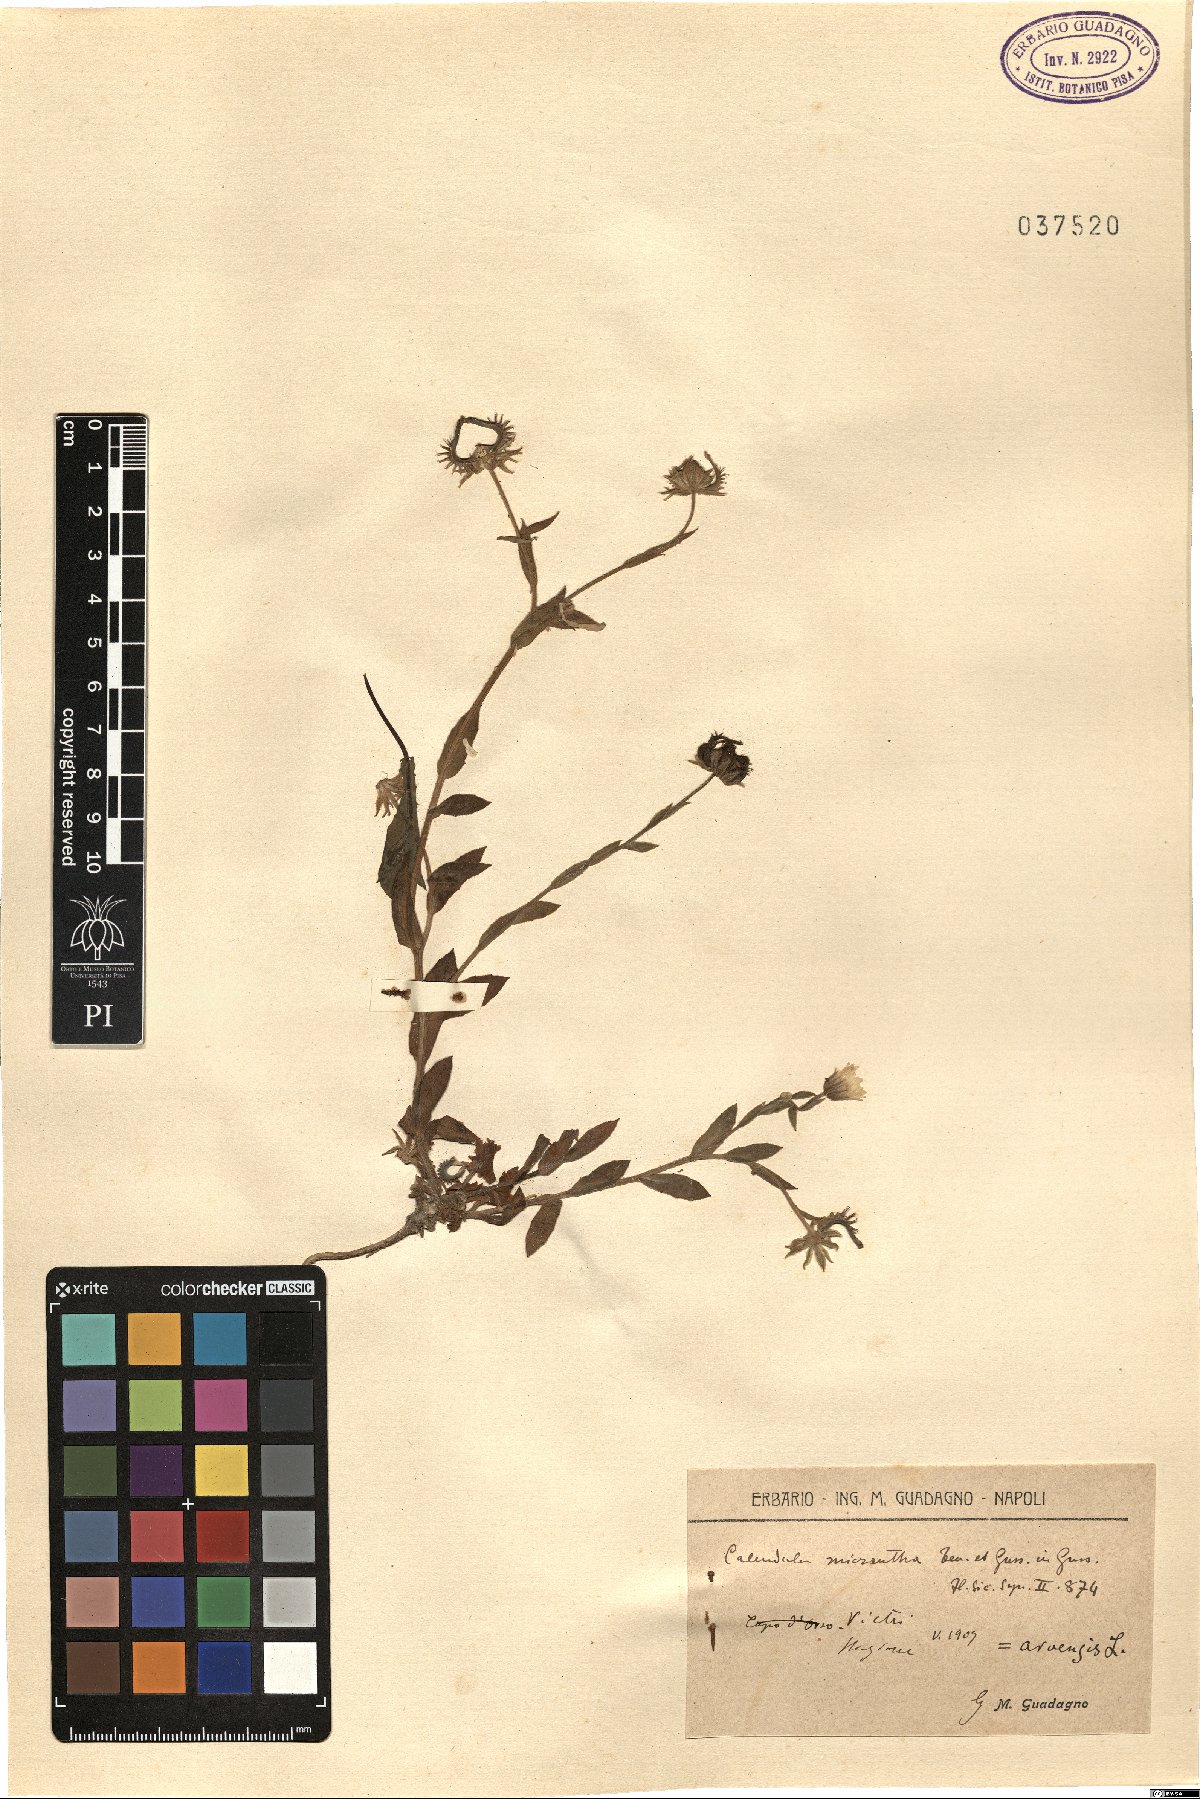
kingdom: Plantae
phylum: Tracheophyta
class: Magnoliopsida
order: Asterales
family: Asteraceae
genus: Calendula
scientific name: Calendula arvensis
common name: Field marigold
